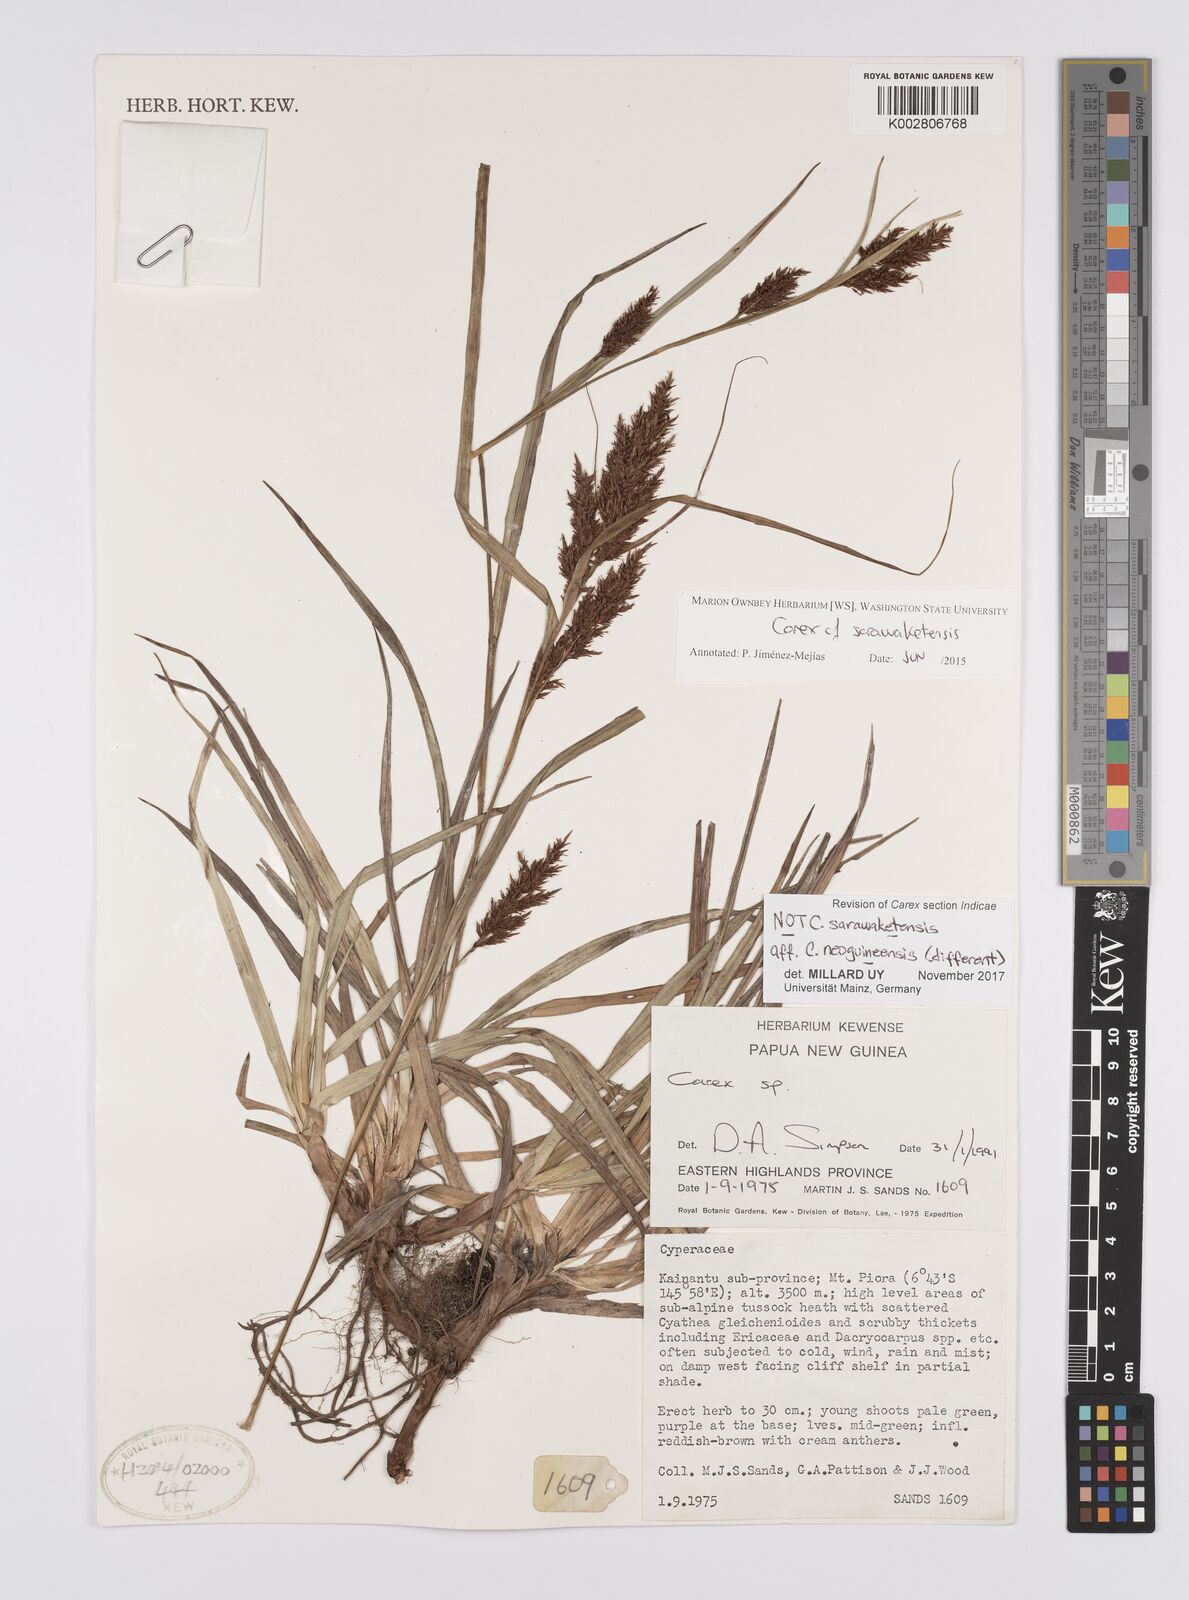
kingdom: Plantae
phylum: Tracheophyta
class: Liliopsida
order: Poales
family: Cyperaceae
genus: Carex
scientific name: Carex filicina
